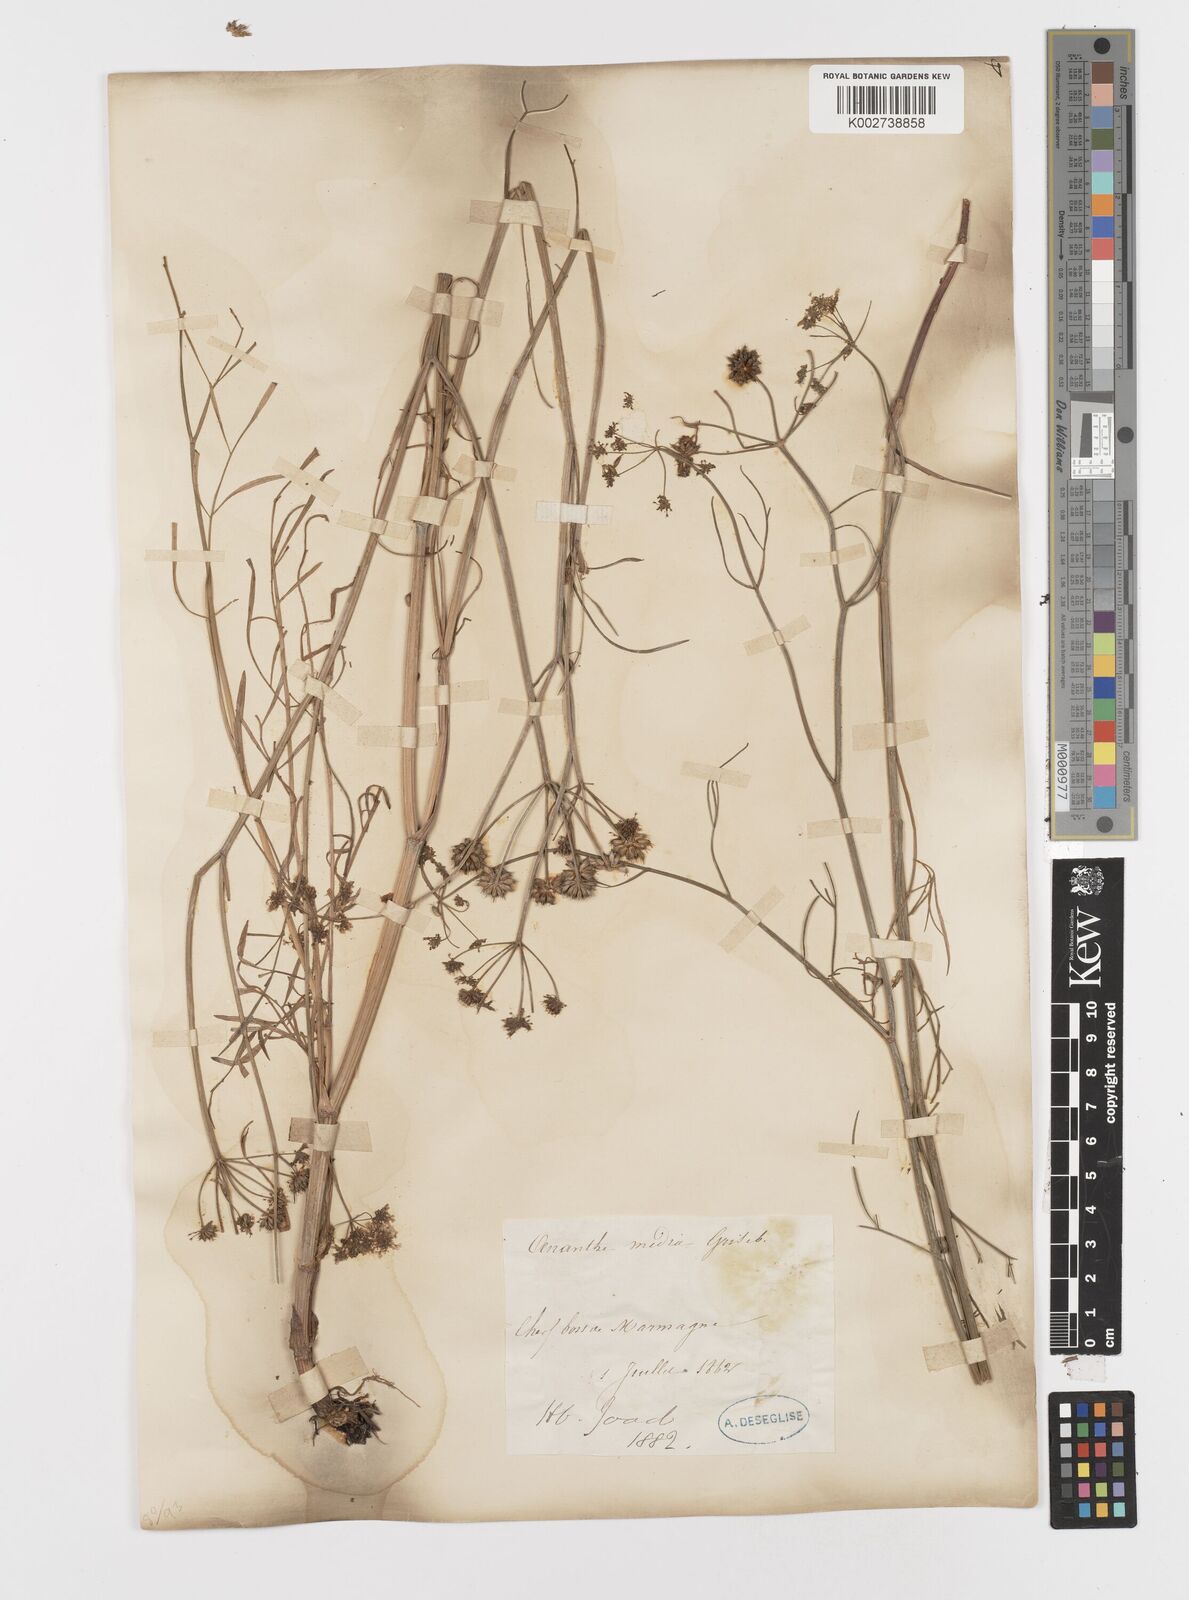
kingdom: Plantae
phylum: Tracheophyta
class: Magnoliopsida
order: Apiales
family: Apiaceae
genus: Oenanthe
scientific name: Oenanthe silaifolia
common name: Narrow-leaved water-dropwort
